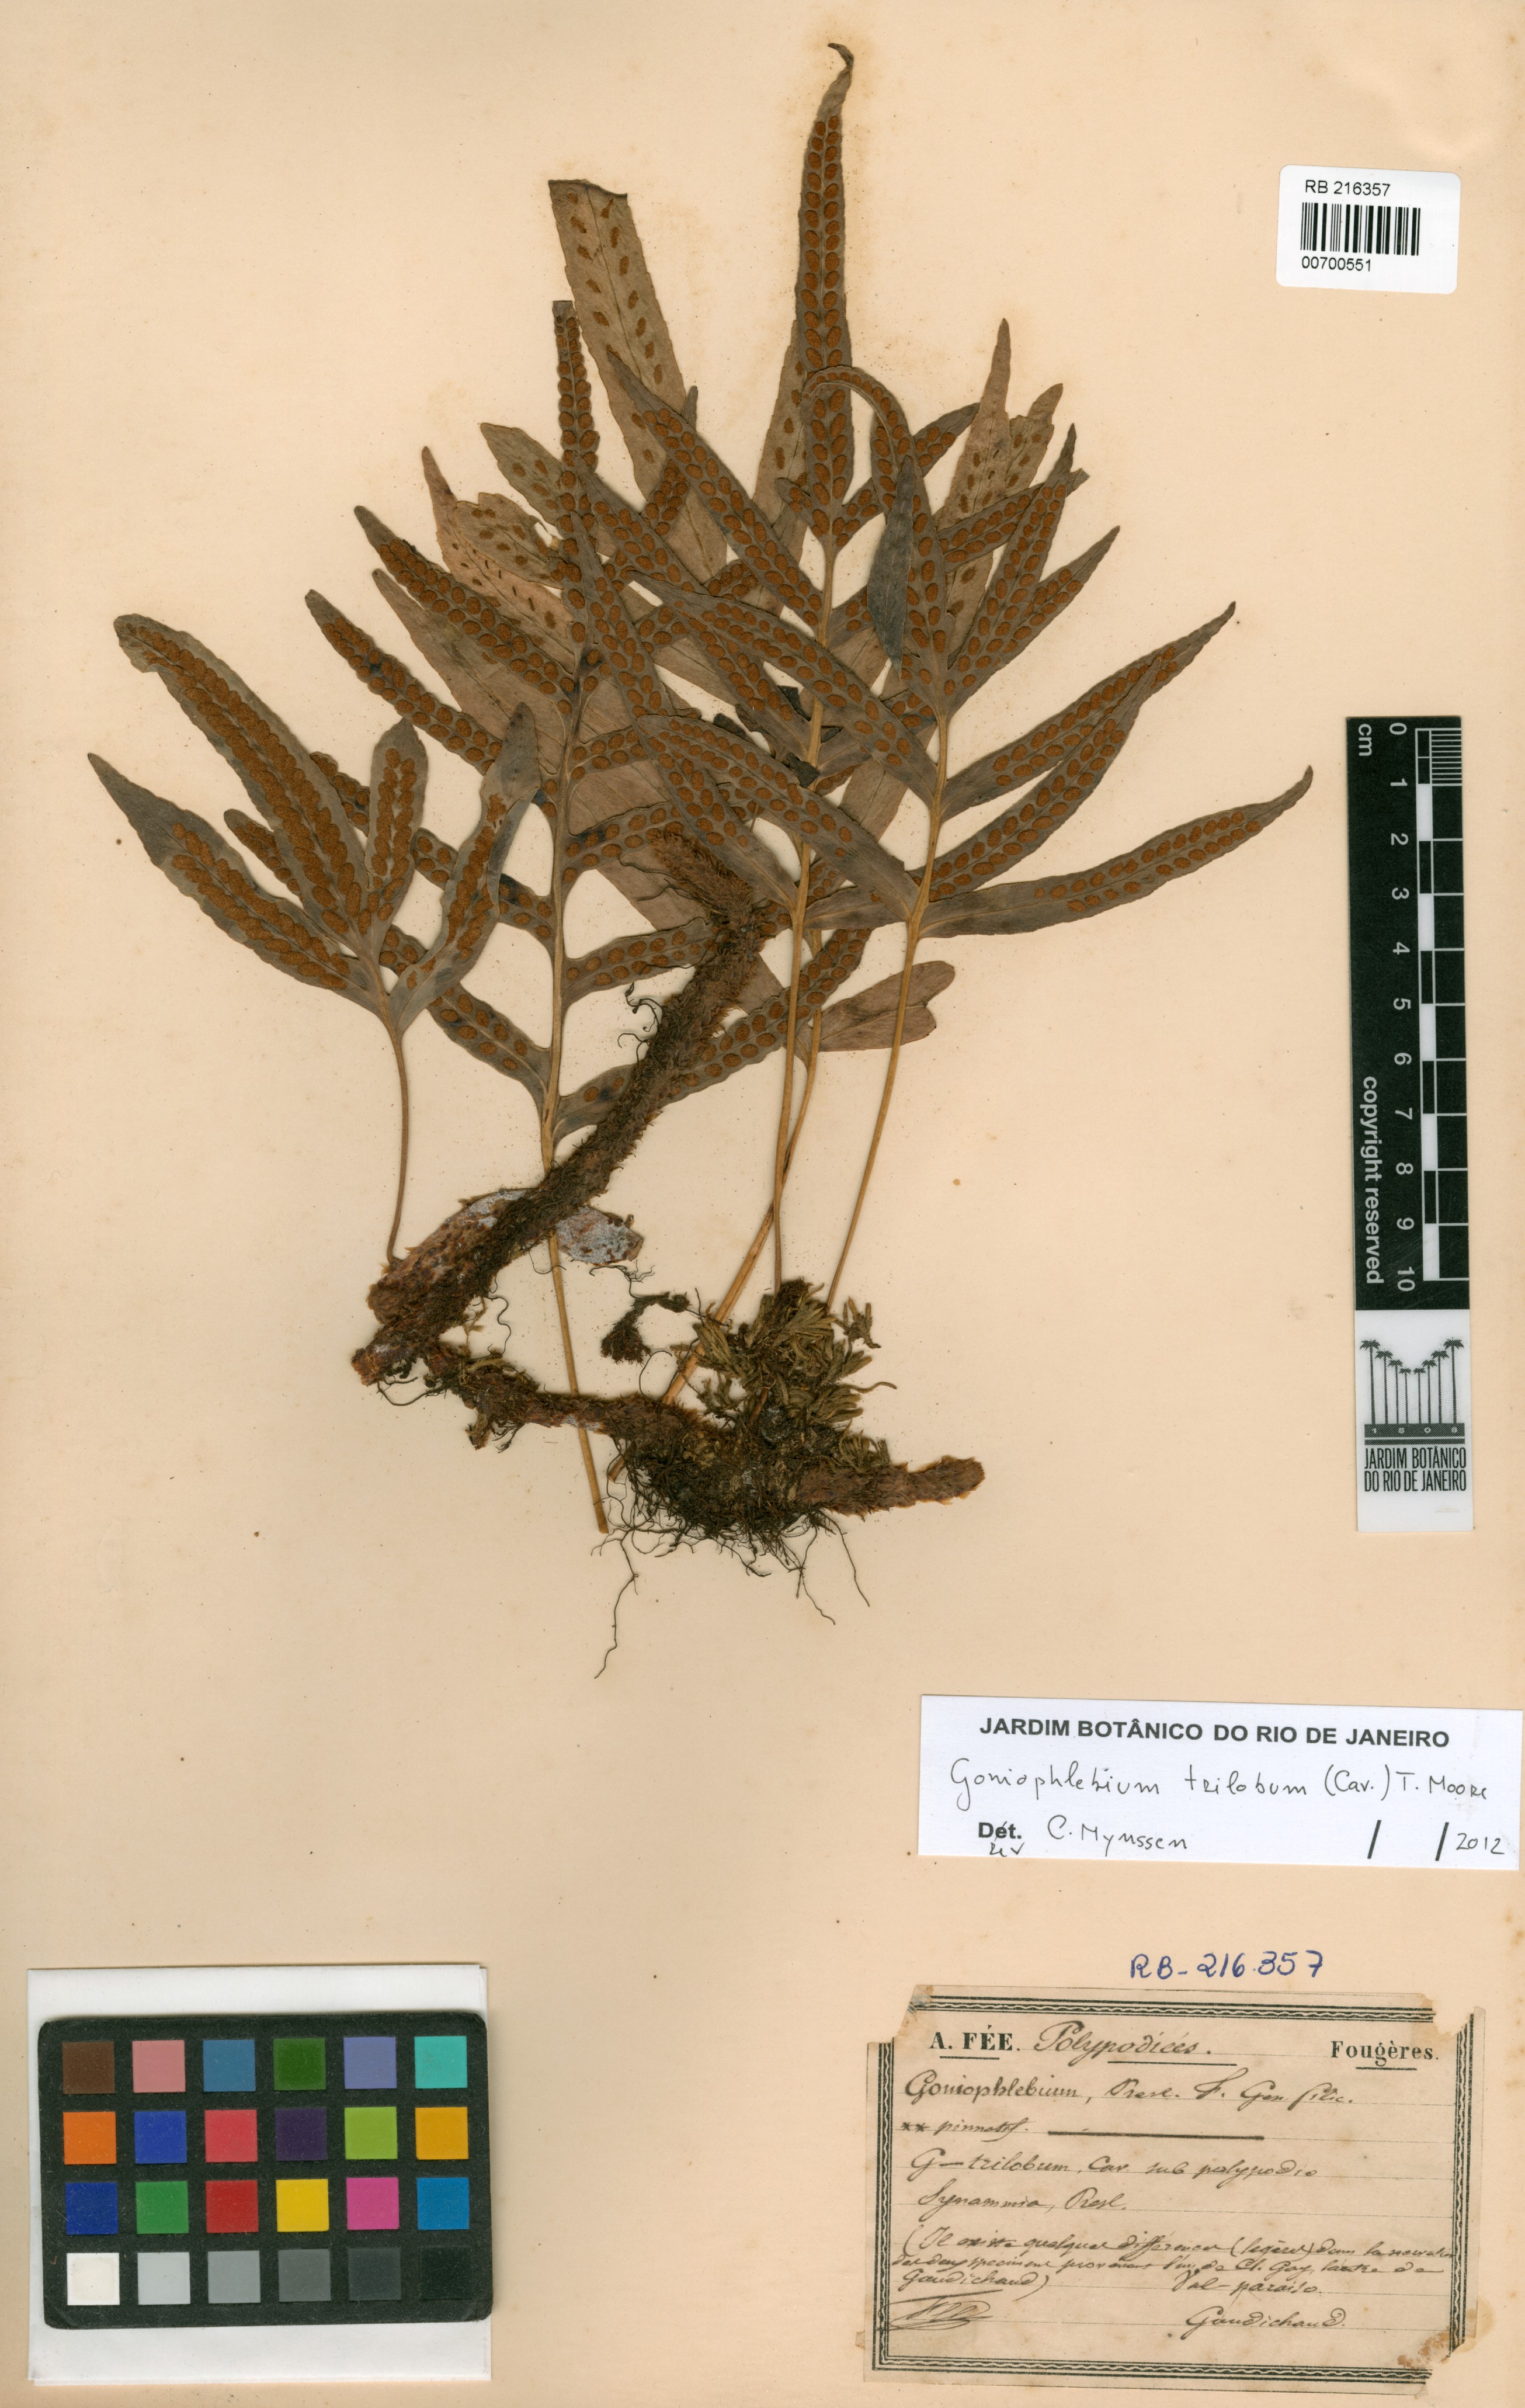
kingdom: Plantae
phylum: Tracheophyta
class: Polypodiopsida
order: Polypodiales
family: Polypodiaceae
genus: Synammia
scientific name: Synammia feuillei
